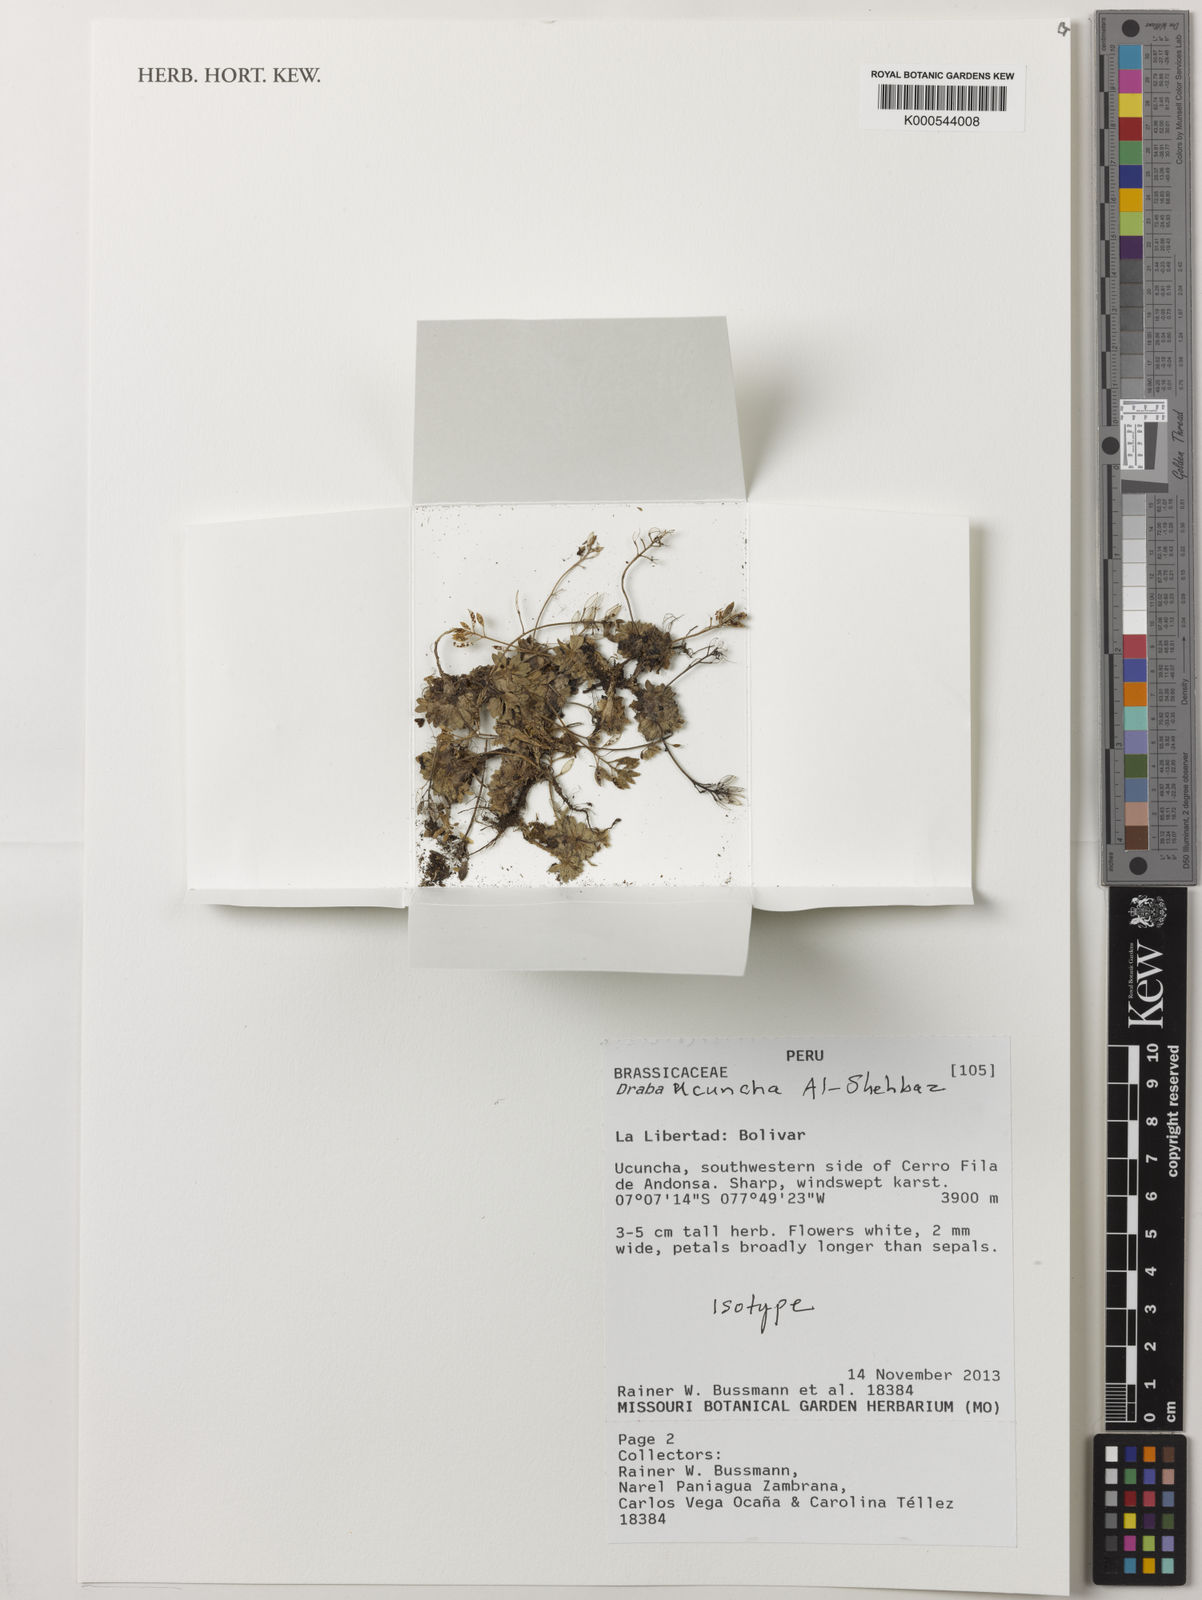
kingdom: Plantae
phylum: Tracheophyta
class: Magnoliopsida
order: Brassicales
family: Brassicaceae
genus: Draba
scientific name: Draba ucuncha
